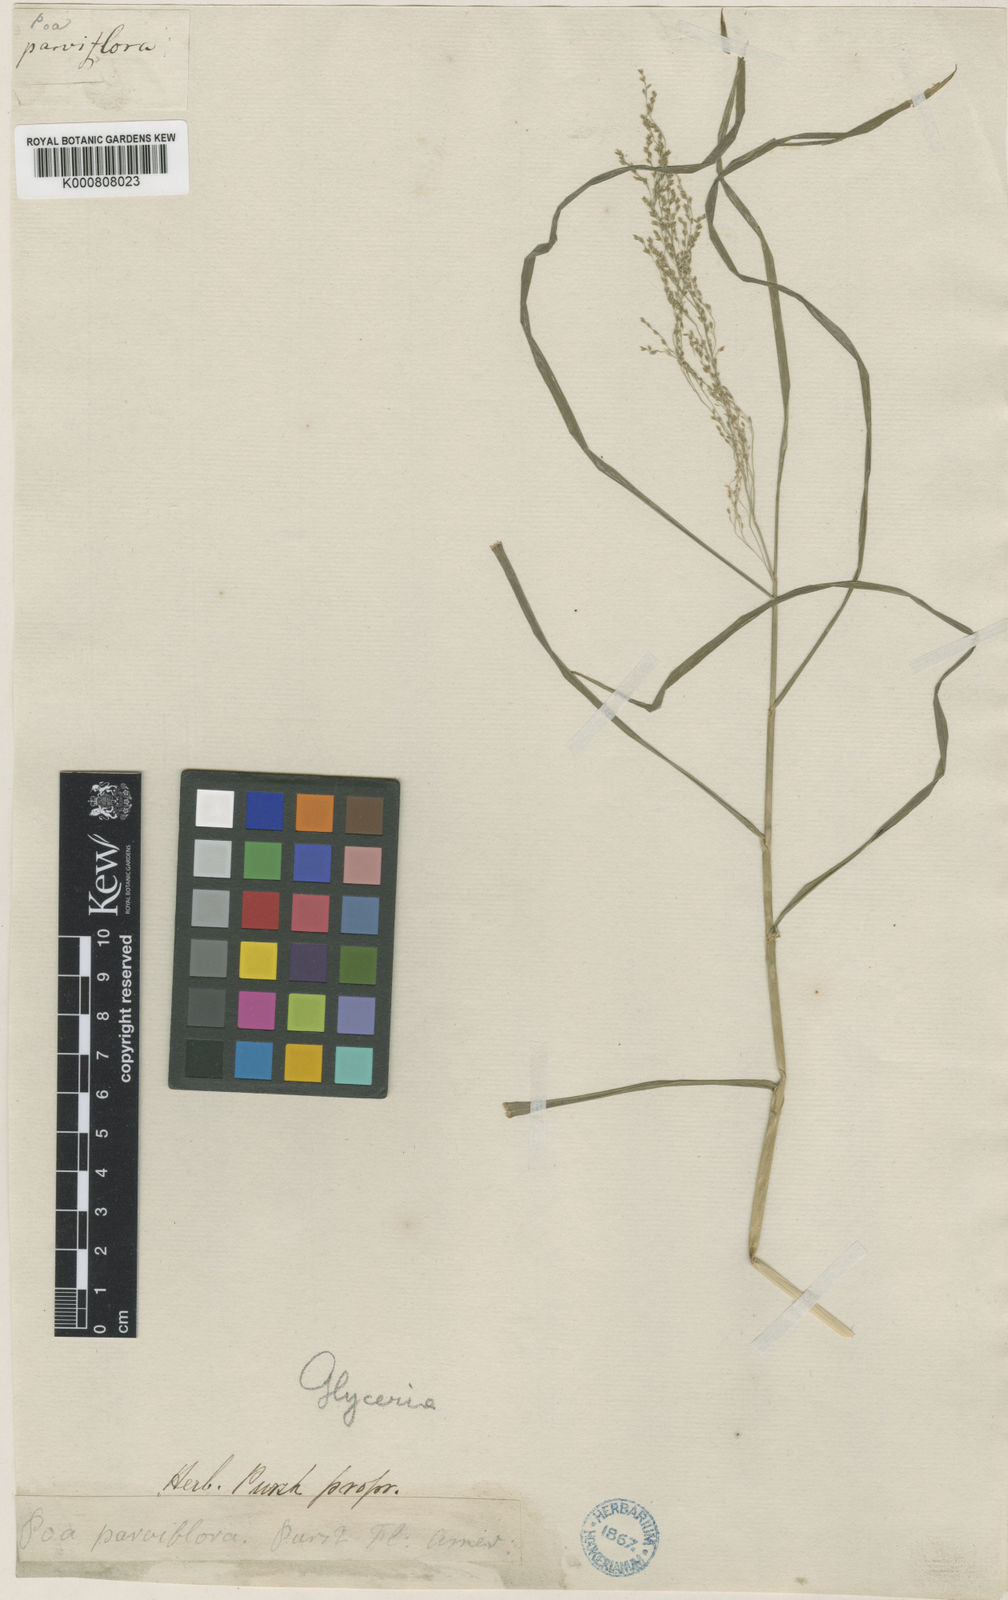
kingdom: Plantae
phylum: Tracheophyta
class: Liliopsida
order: Poales
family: Poaceae
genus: Glyceria
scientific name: Glyceria striata
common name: Fowl manna grass
